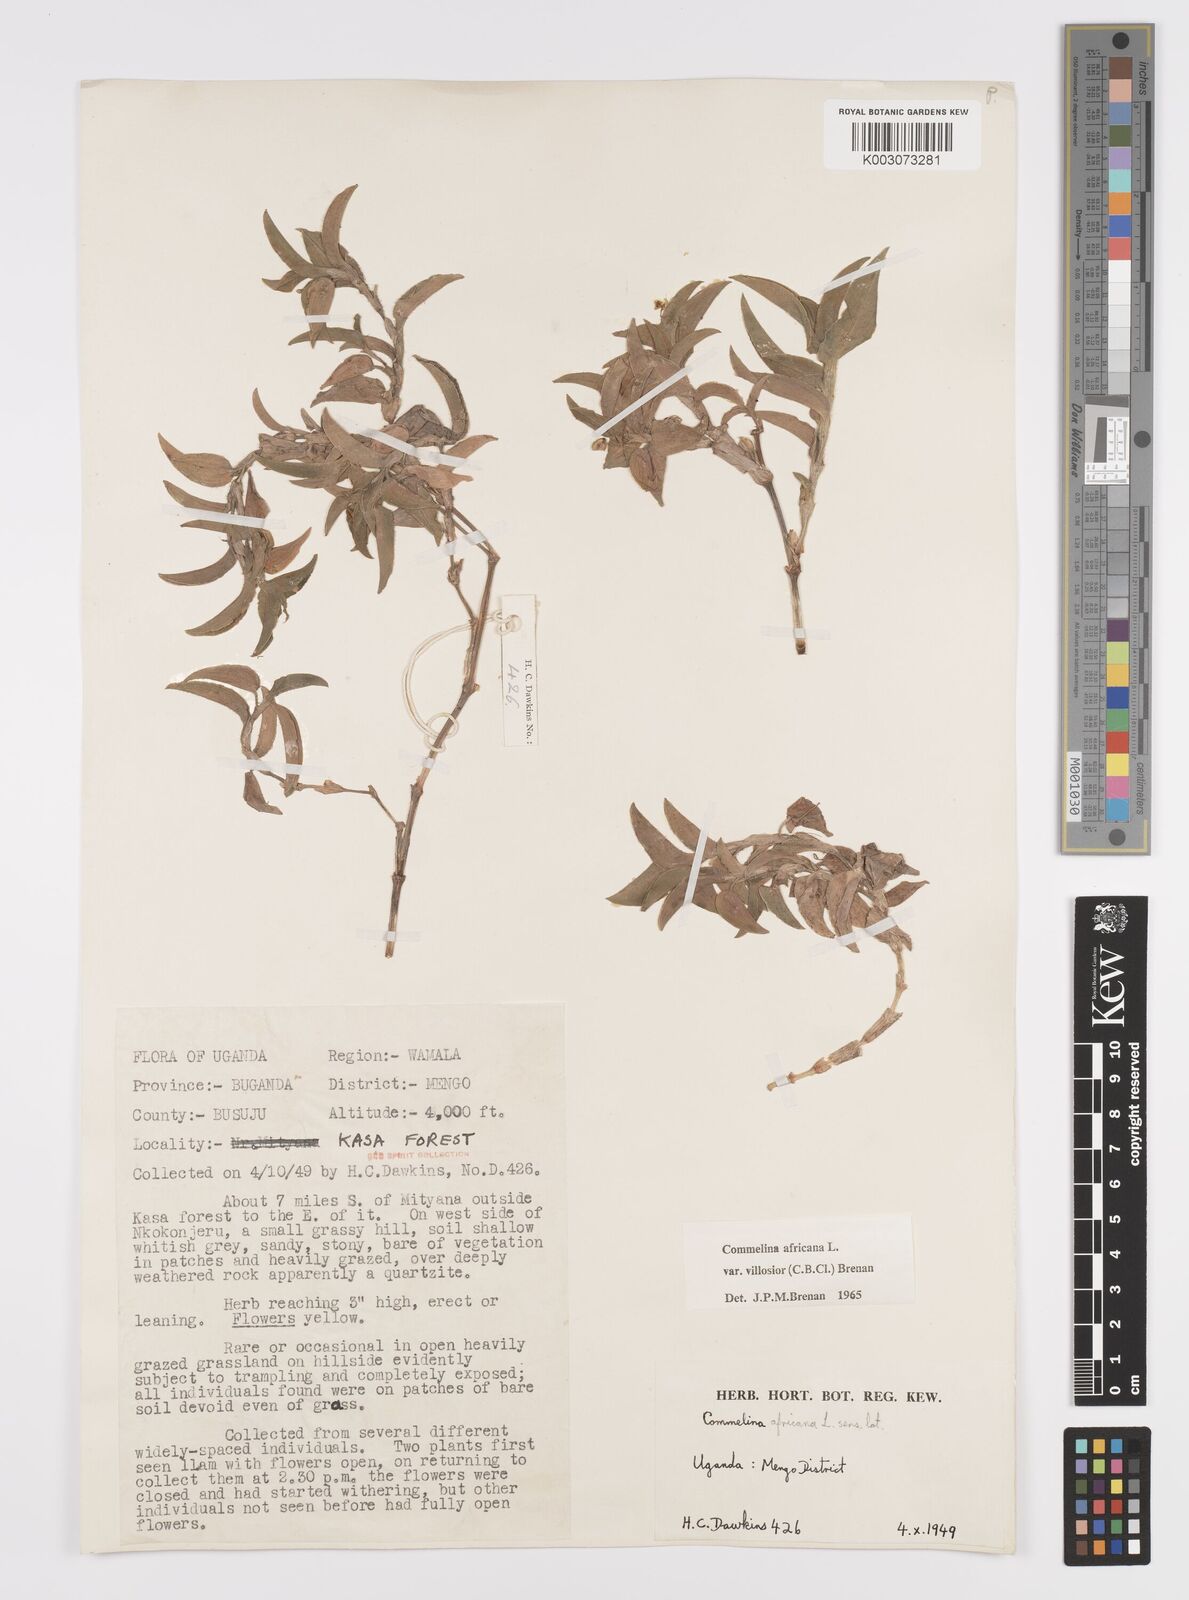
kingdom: Plantae
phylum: Tracheophyta
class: Liliopsida
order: Commelinales
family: Commelinaceae
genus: Commelina
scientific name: Commelina africana
